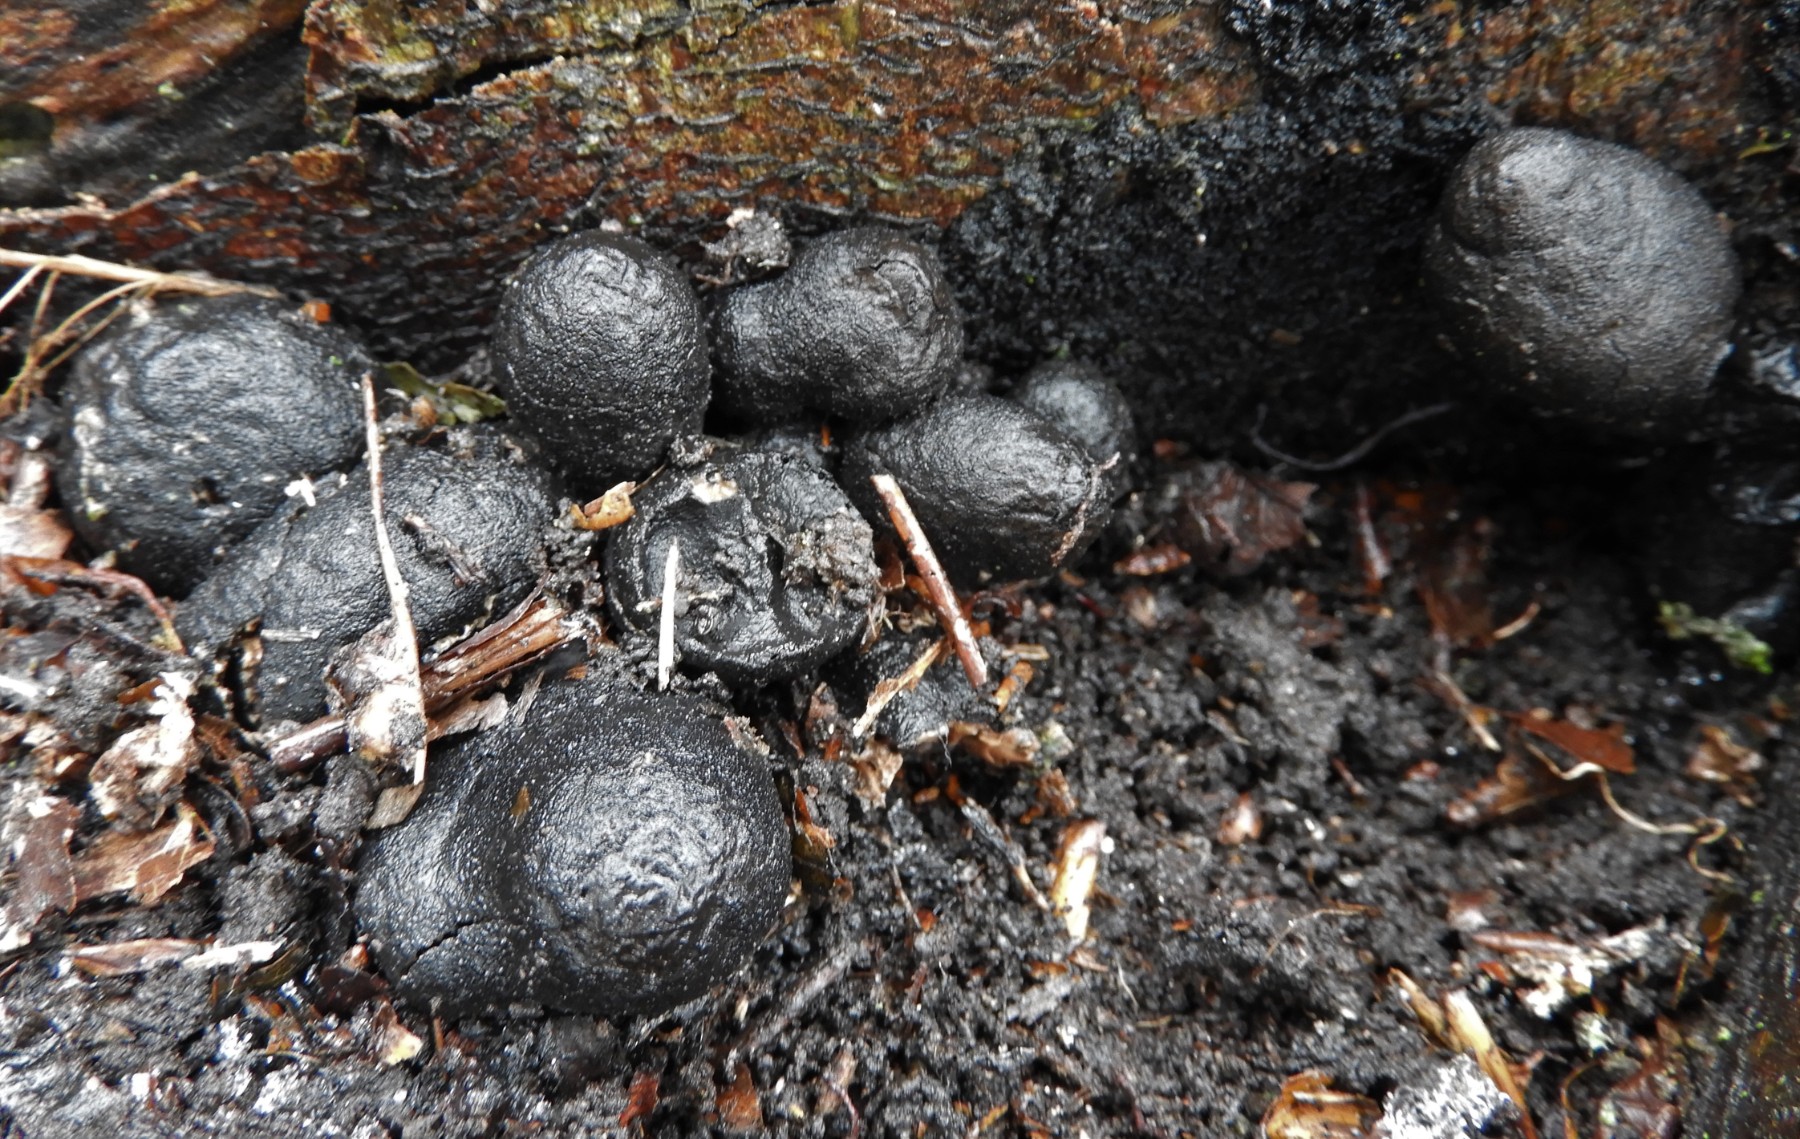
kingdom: Fungi
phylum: Ascomycota
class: Sordariomycetes
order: Xylariales
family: Xylariaceae
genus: Xylaria
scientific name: Xylaria polymorpha
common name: kølle-stødsvamp
